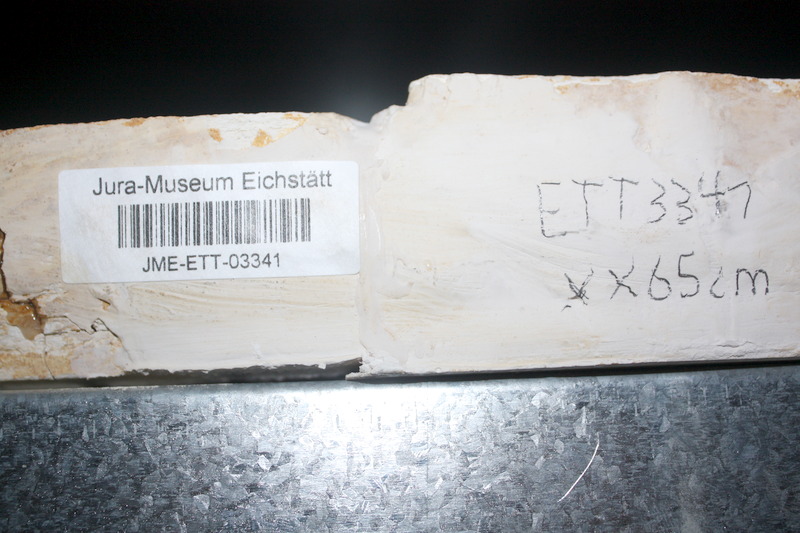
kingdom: Animalia
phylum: Chordata
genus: Thrissops
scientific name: Thrissops formosus
